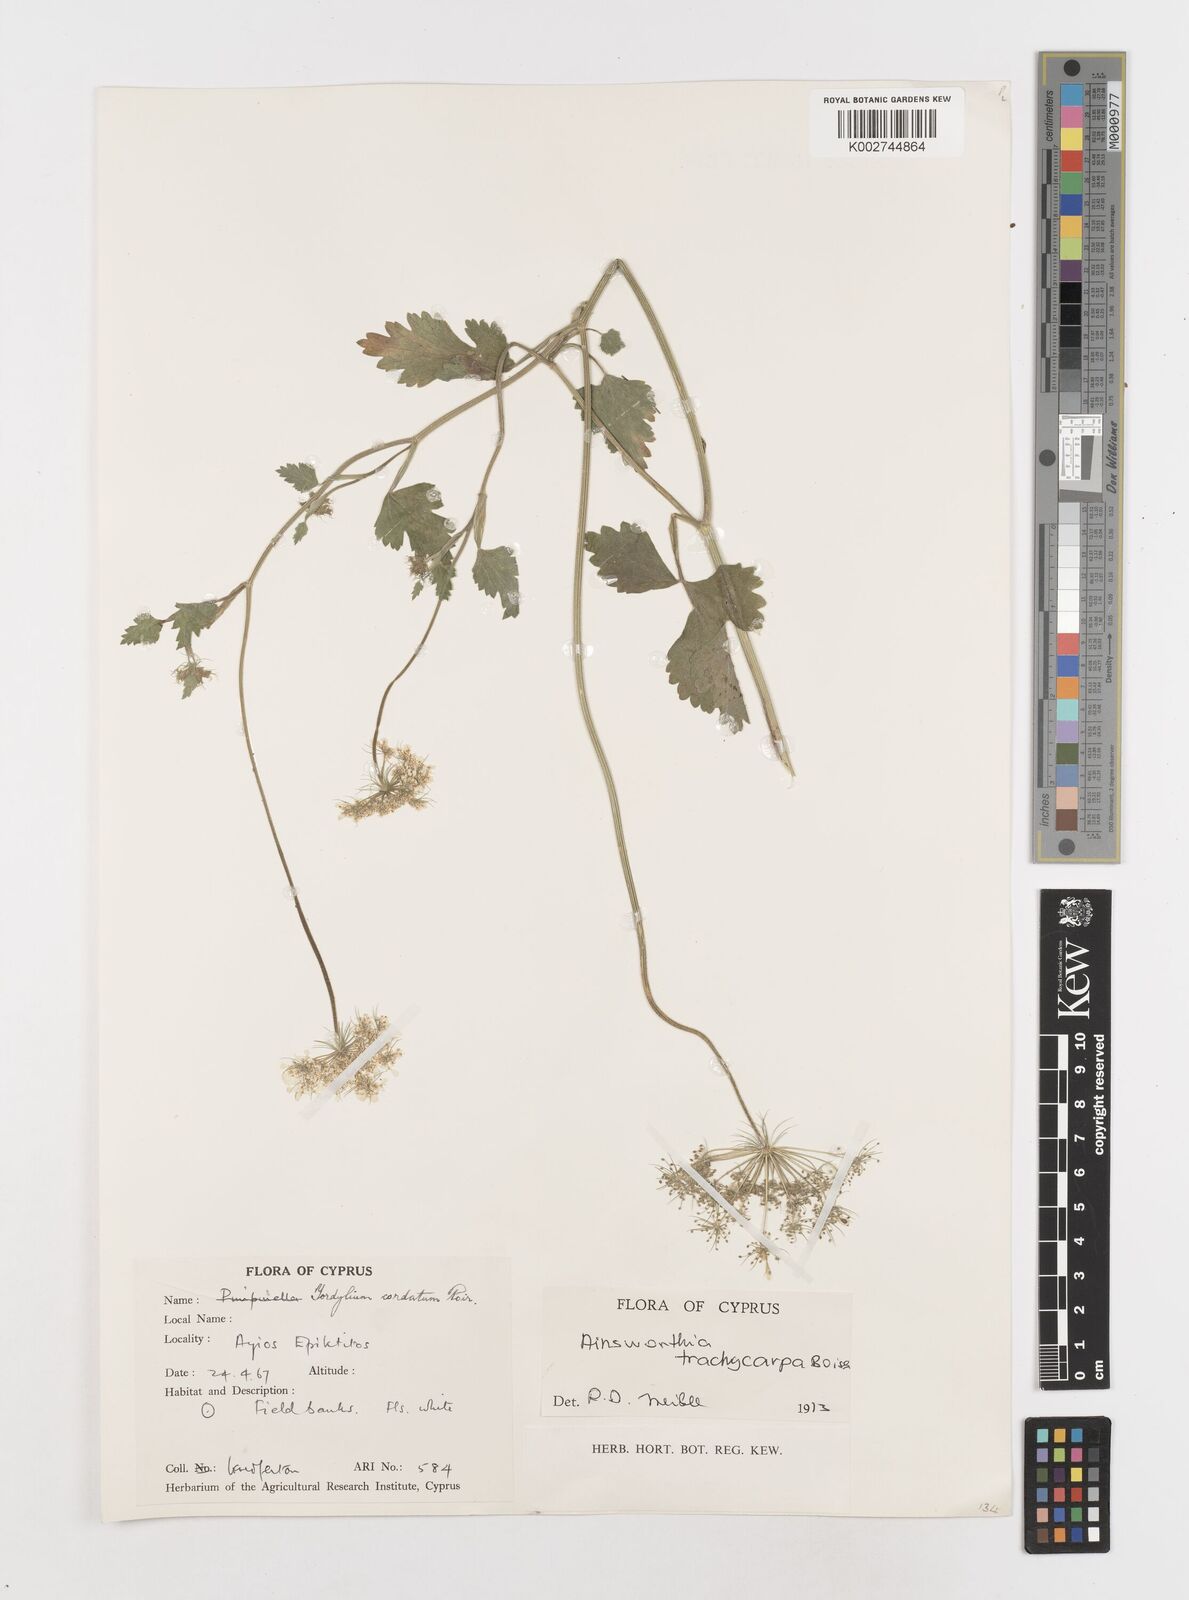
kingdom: Plantae
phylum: Tracheophyta
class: Magnoliopsida
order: Apiales
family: Apiaceae
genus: Ainsworthia
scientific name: Ainsworthia cordata
